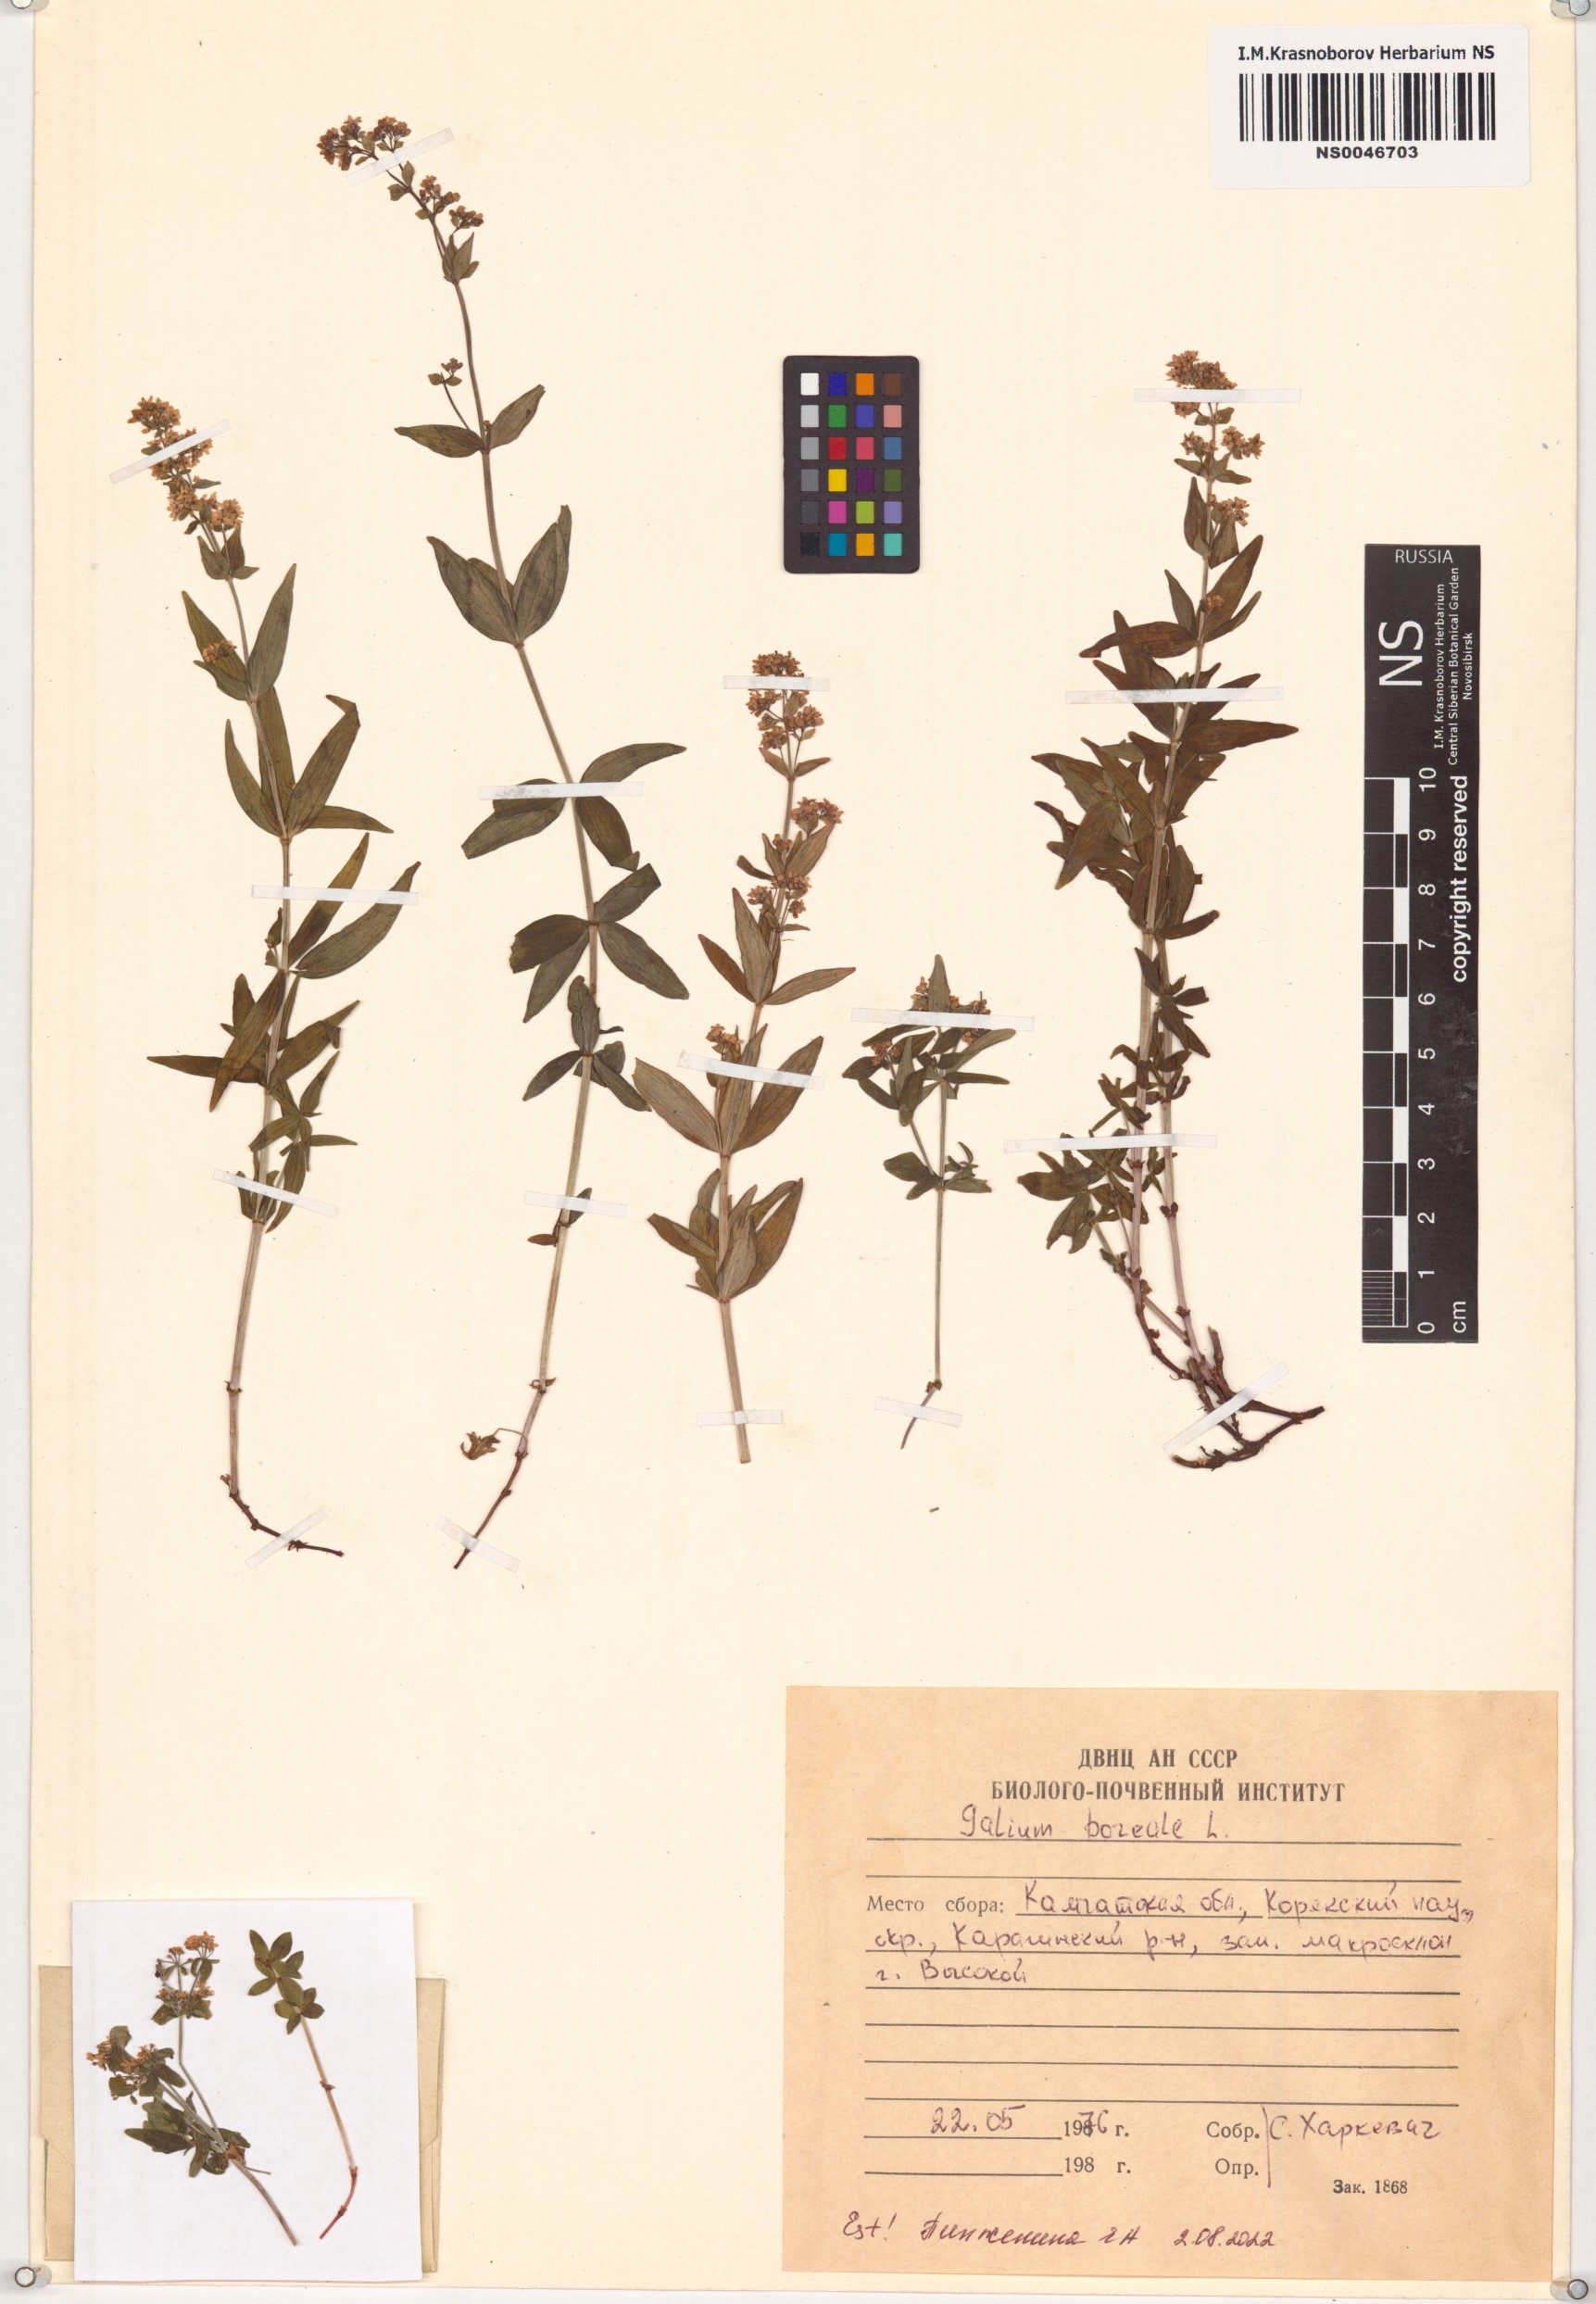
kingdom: Plantae
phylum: Tracheophyta
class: Magnoliopsida
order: Gentianales
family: Rubiaceae
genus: Galium
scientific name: Galium boreale
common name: Northern bedstraw
